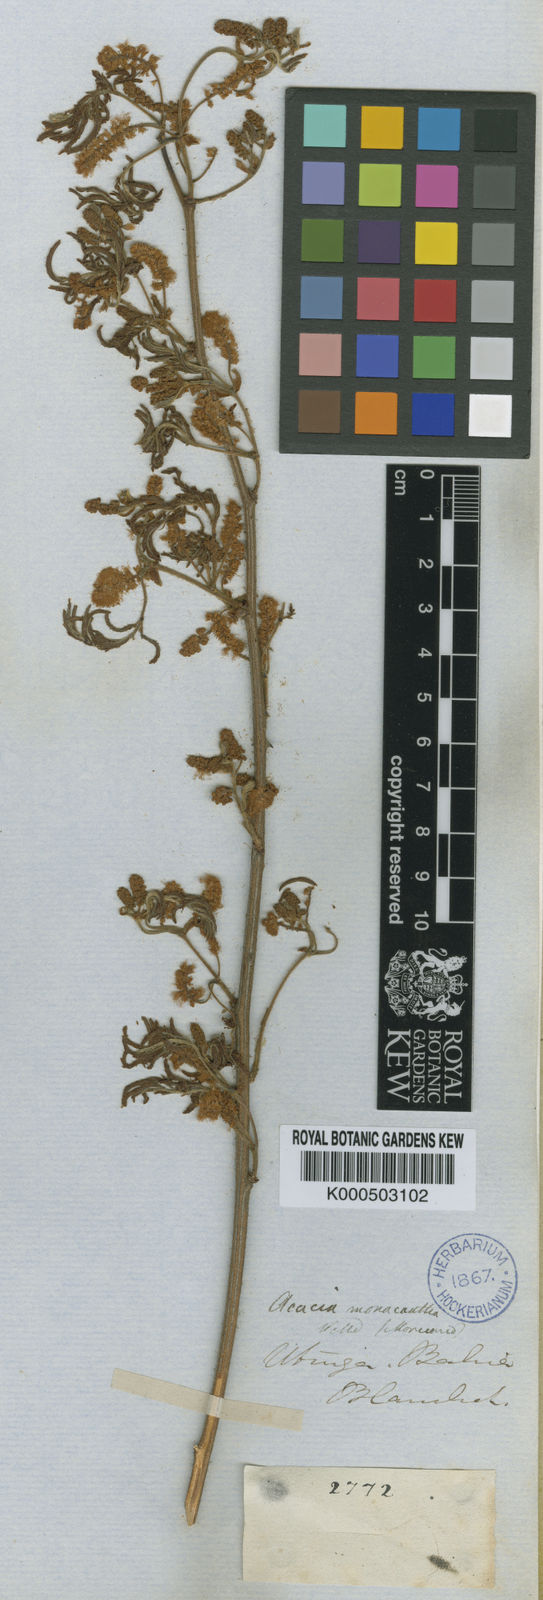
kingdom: Plantae
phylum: Tracheophyta
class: Magnoliopsida
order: Fabales
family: Fabaceae
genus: Senegalia
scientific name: Senegalia monacantha
